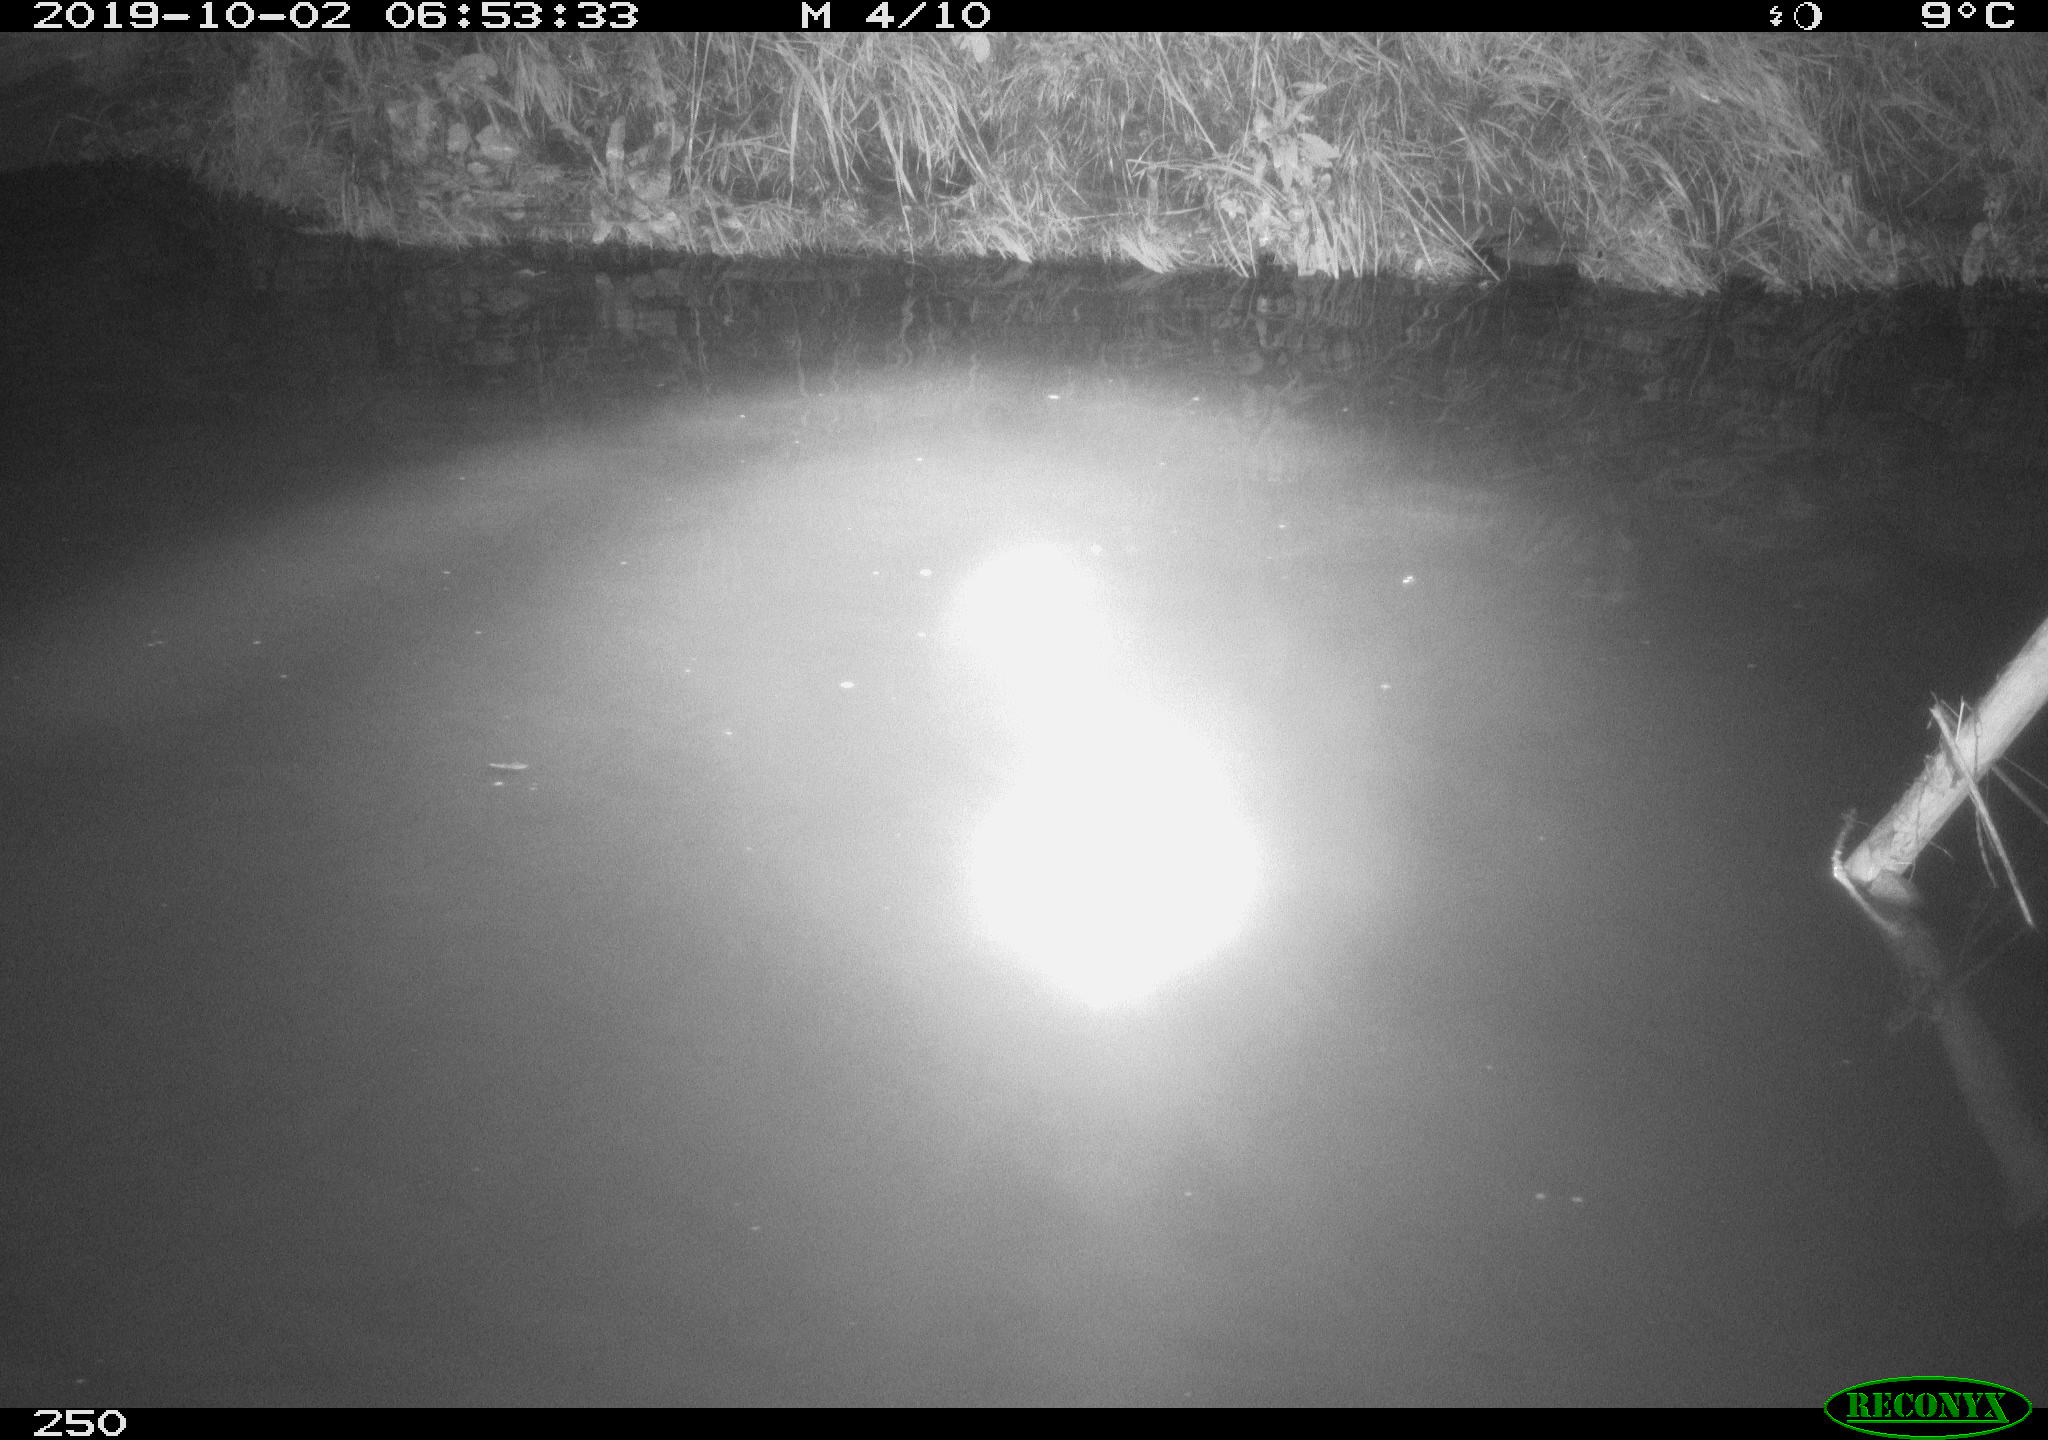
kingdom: Animalia
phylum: Chordata
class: Aves
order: Anseriformes
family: Anatidae
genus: Anas
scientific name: Anas platyrhynchos
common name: Mallard
